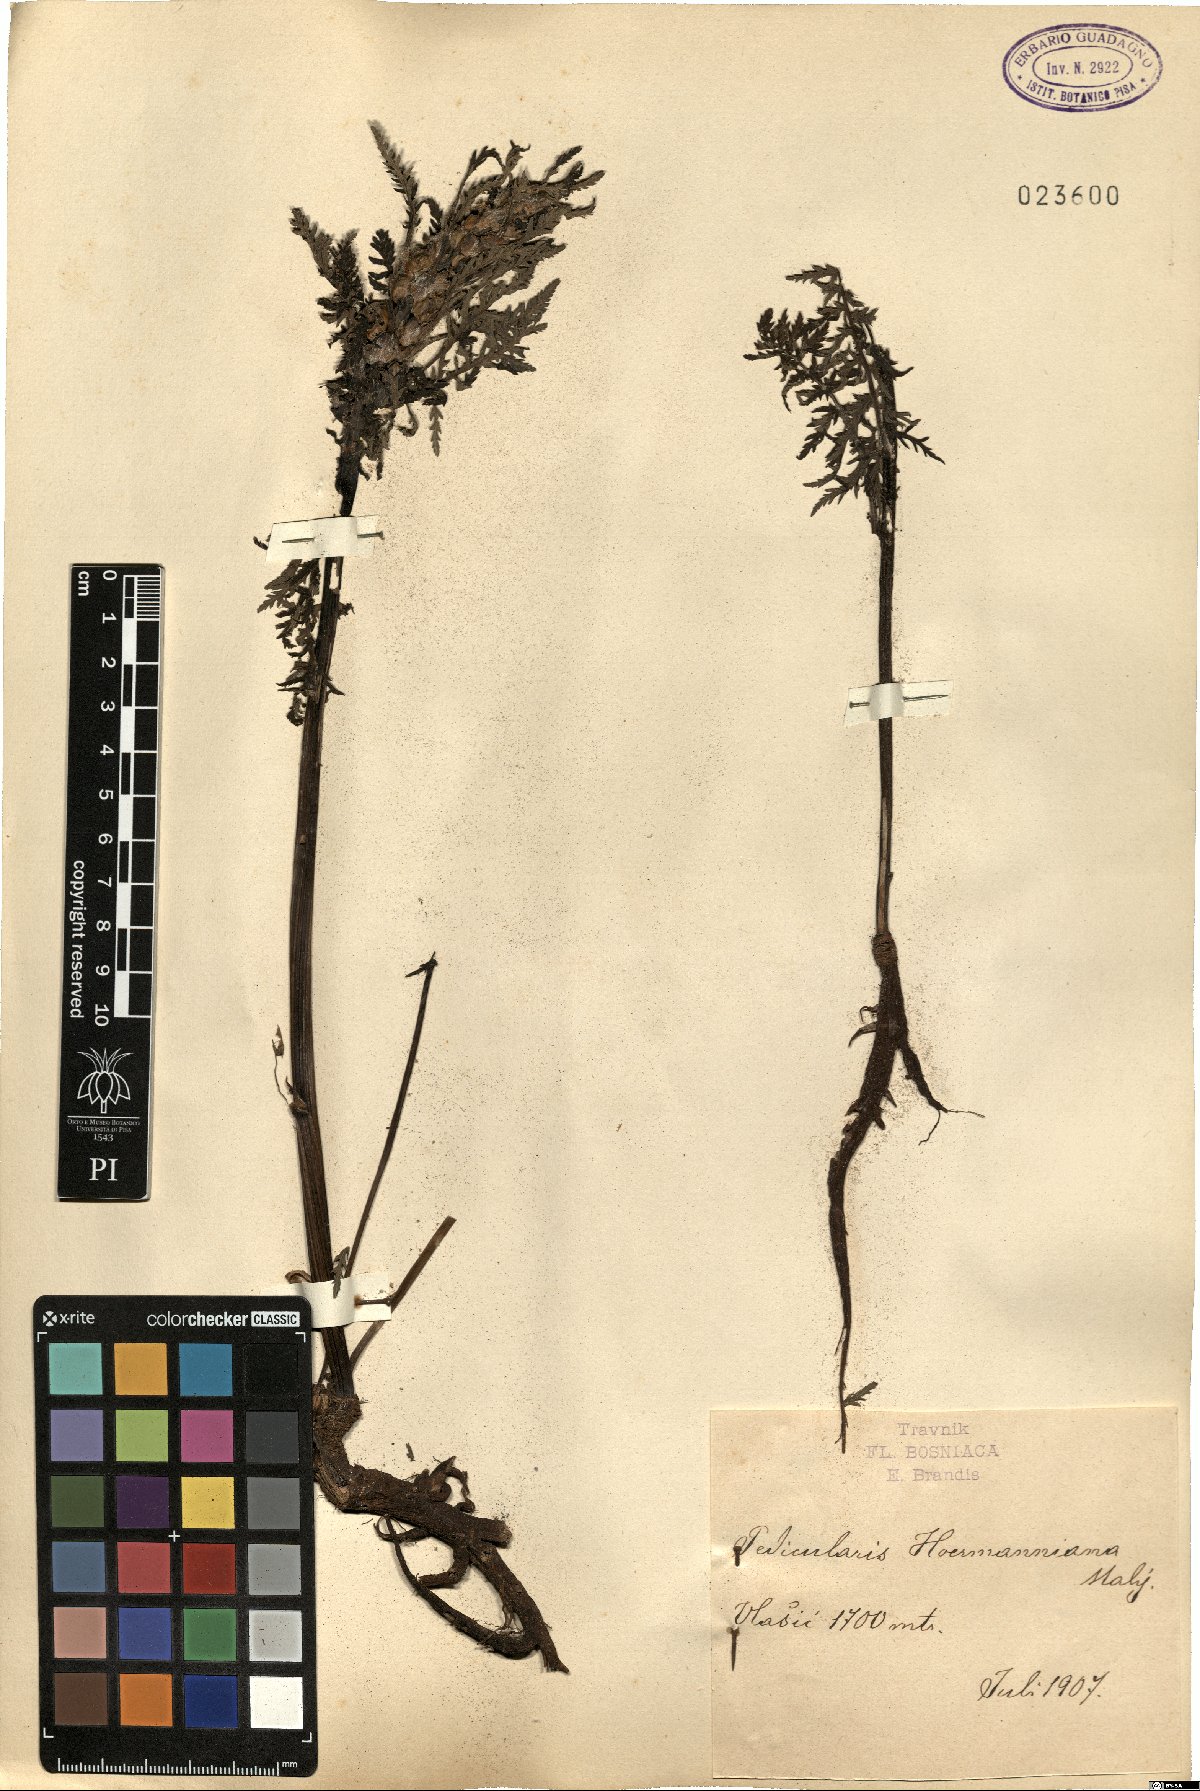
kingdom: Plantae
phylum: Tracheophyta
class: Magnoliopsida
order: Lamiales
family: Orobanchaceae
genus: Pedicularis
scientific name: Pedicularis hoermanniana
